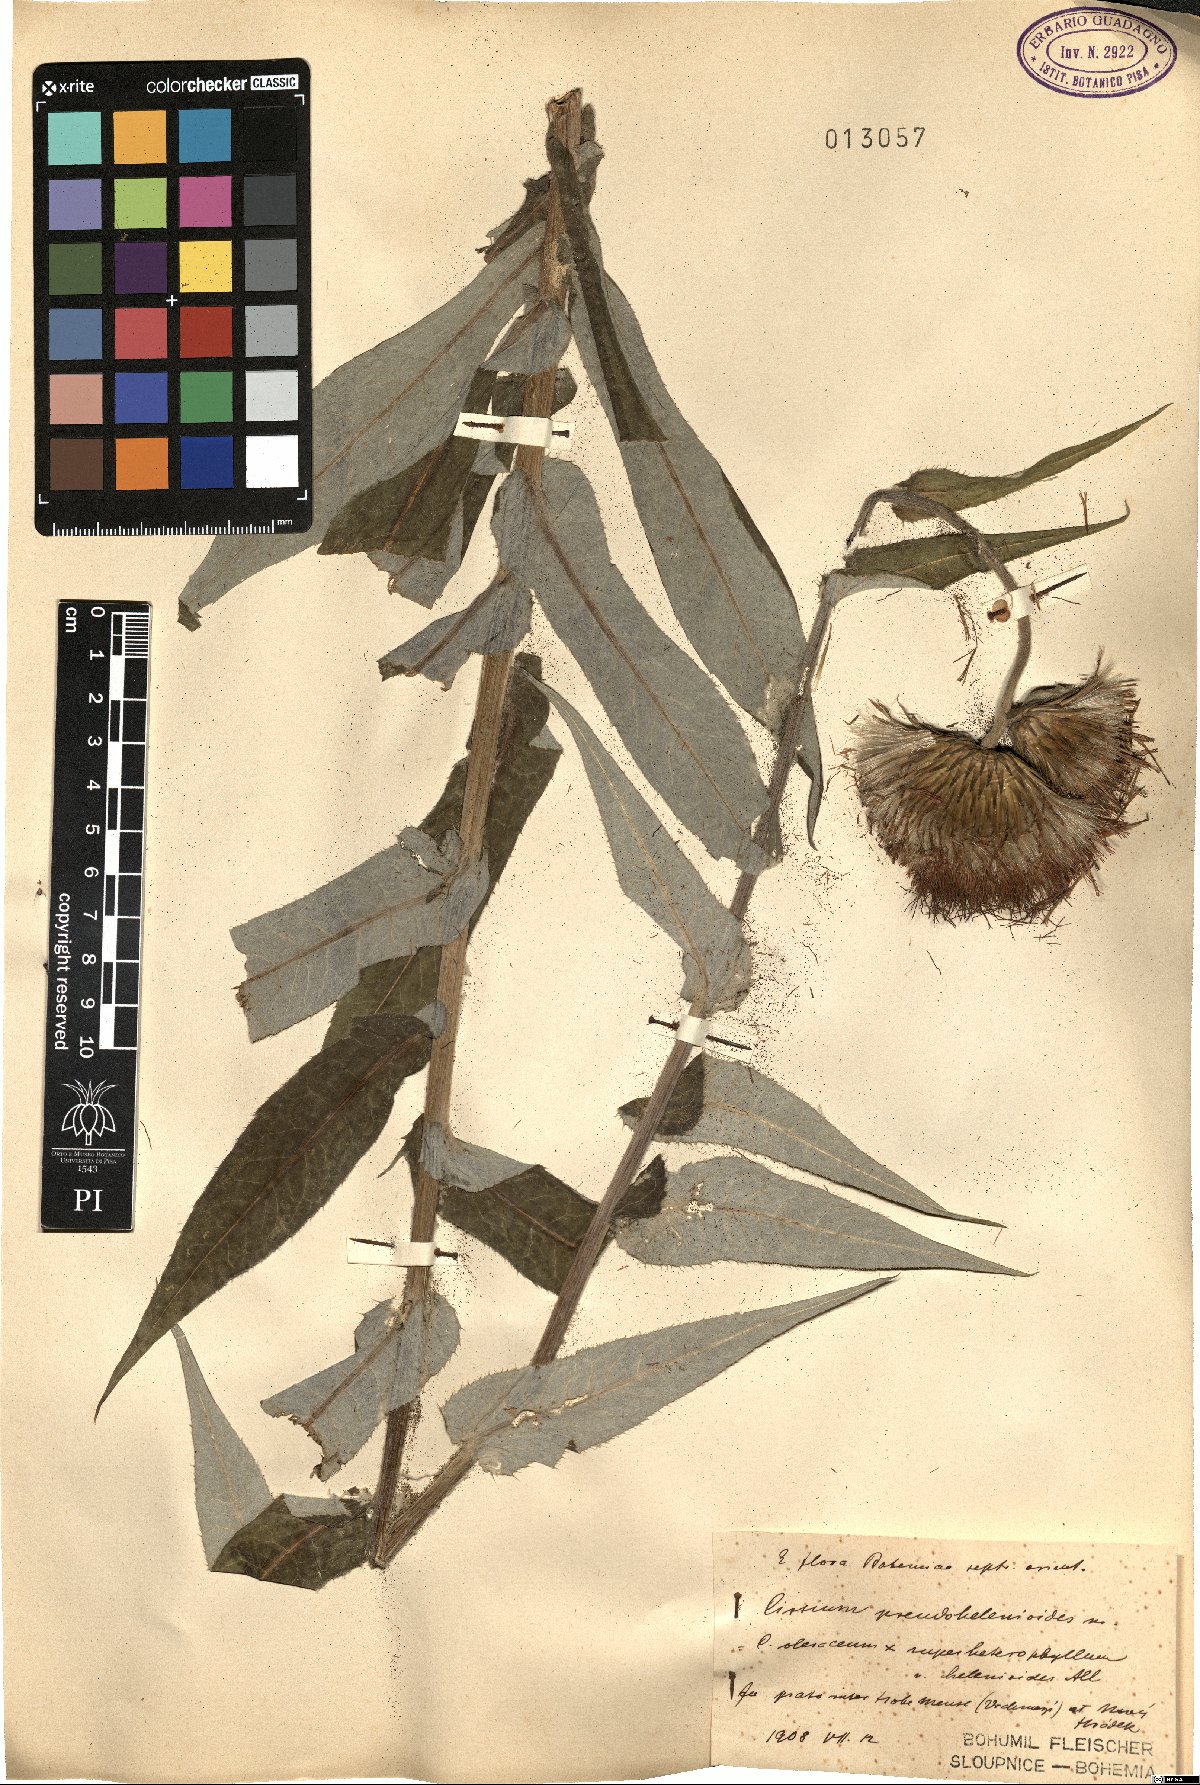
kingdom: Plantae
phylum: Tracheophyta
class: Magnoliopsida
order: Asterales
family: Asteraceae
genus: Cirsium
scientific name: Cirsium oleraceum
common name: Cabbage thistle
